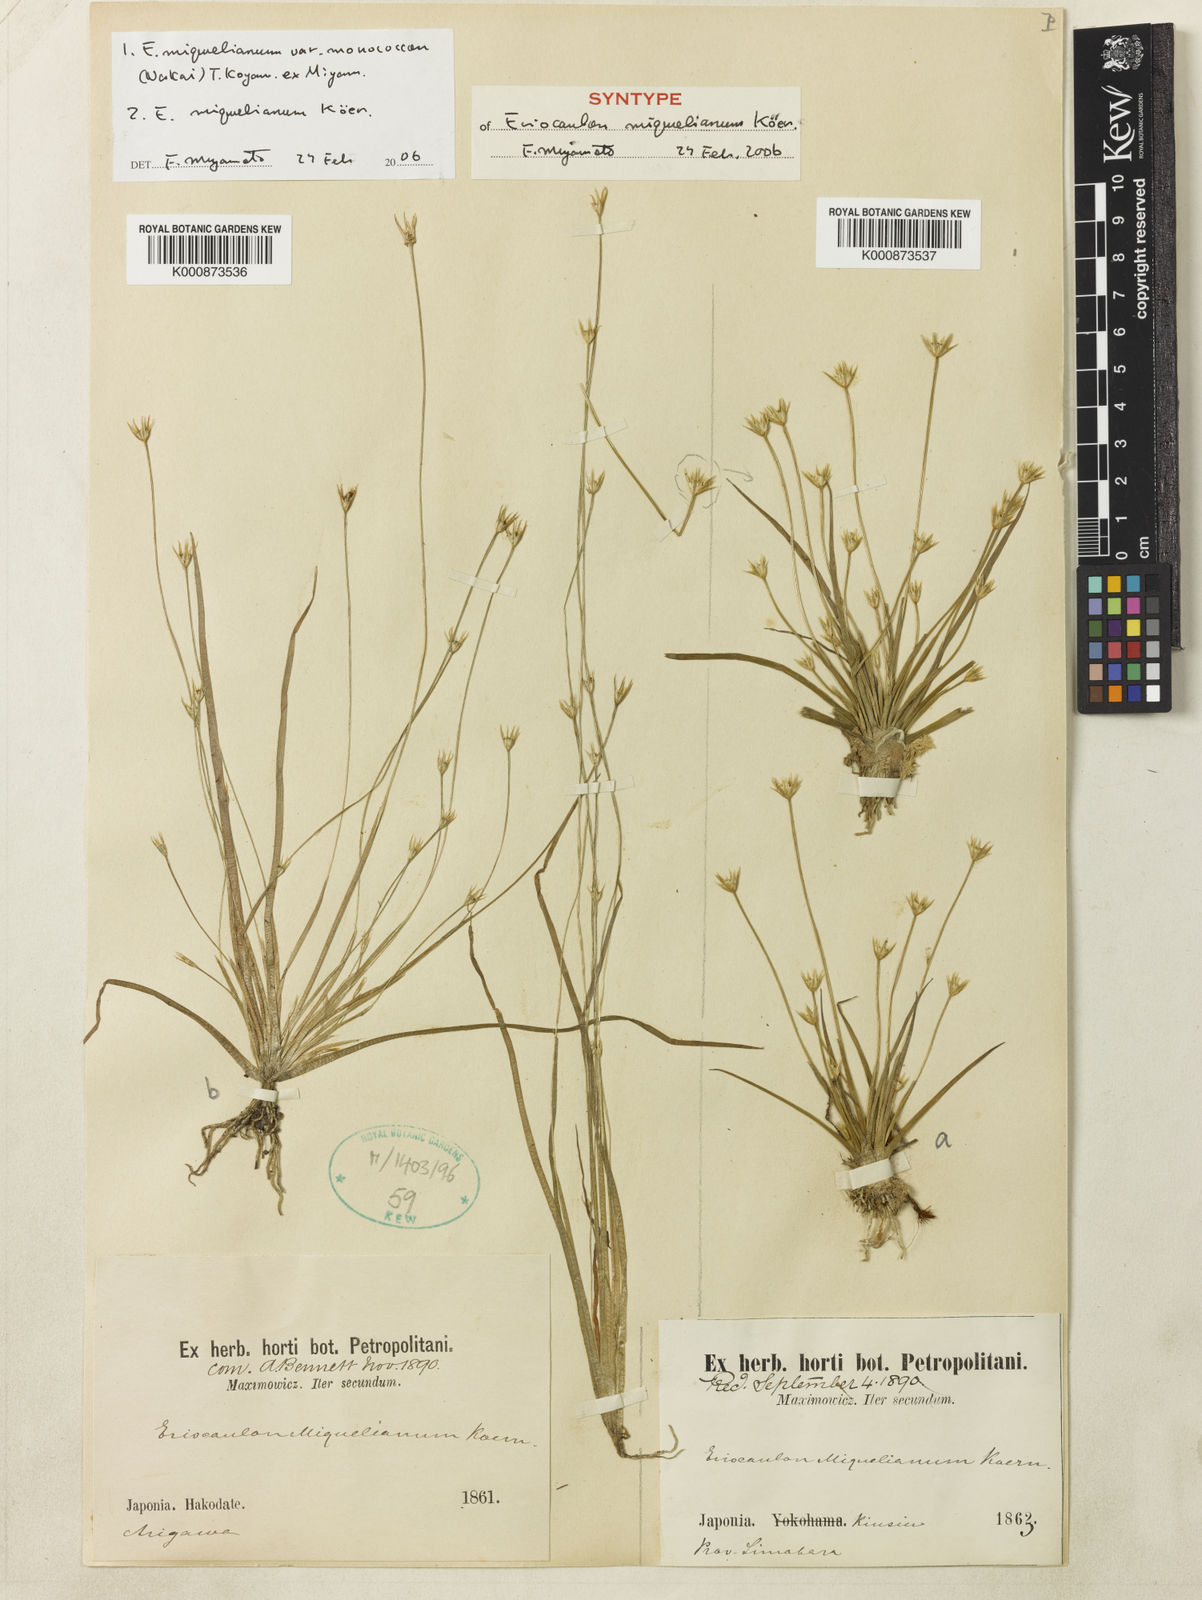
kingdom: Plantae
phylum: Tracheophyta
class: Liliopsida
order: Poales
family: Eriocaulaceae
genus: Eriocaulon
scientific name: Eriocaulon
